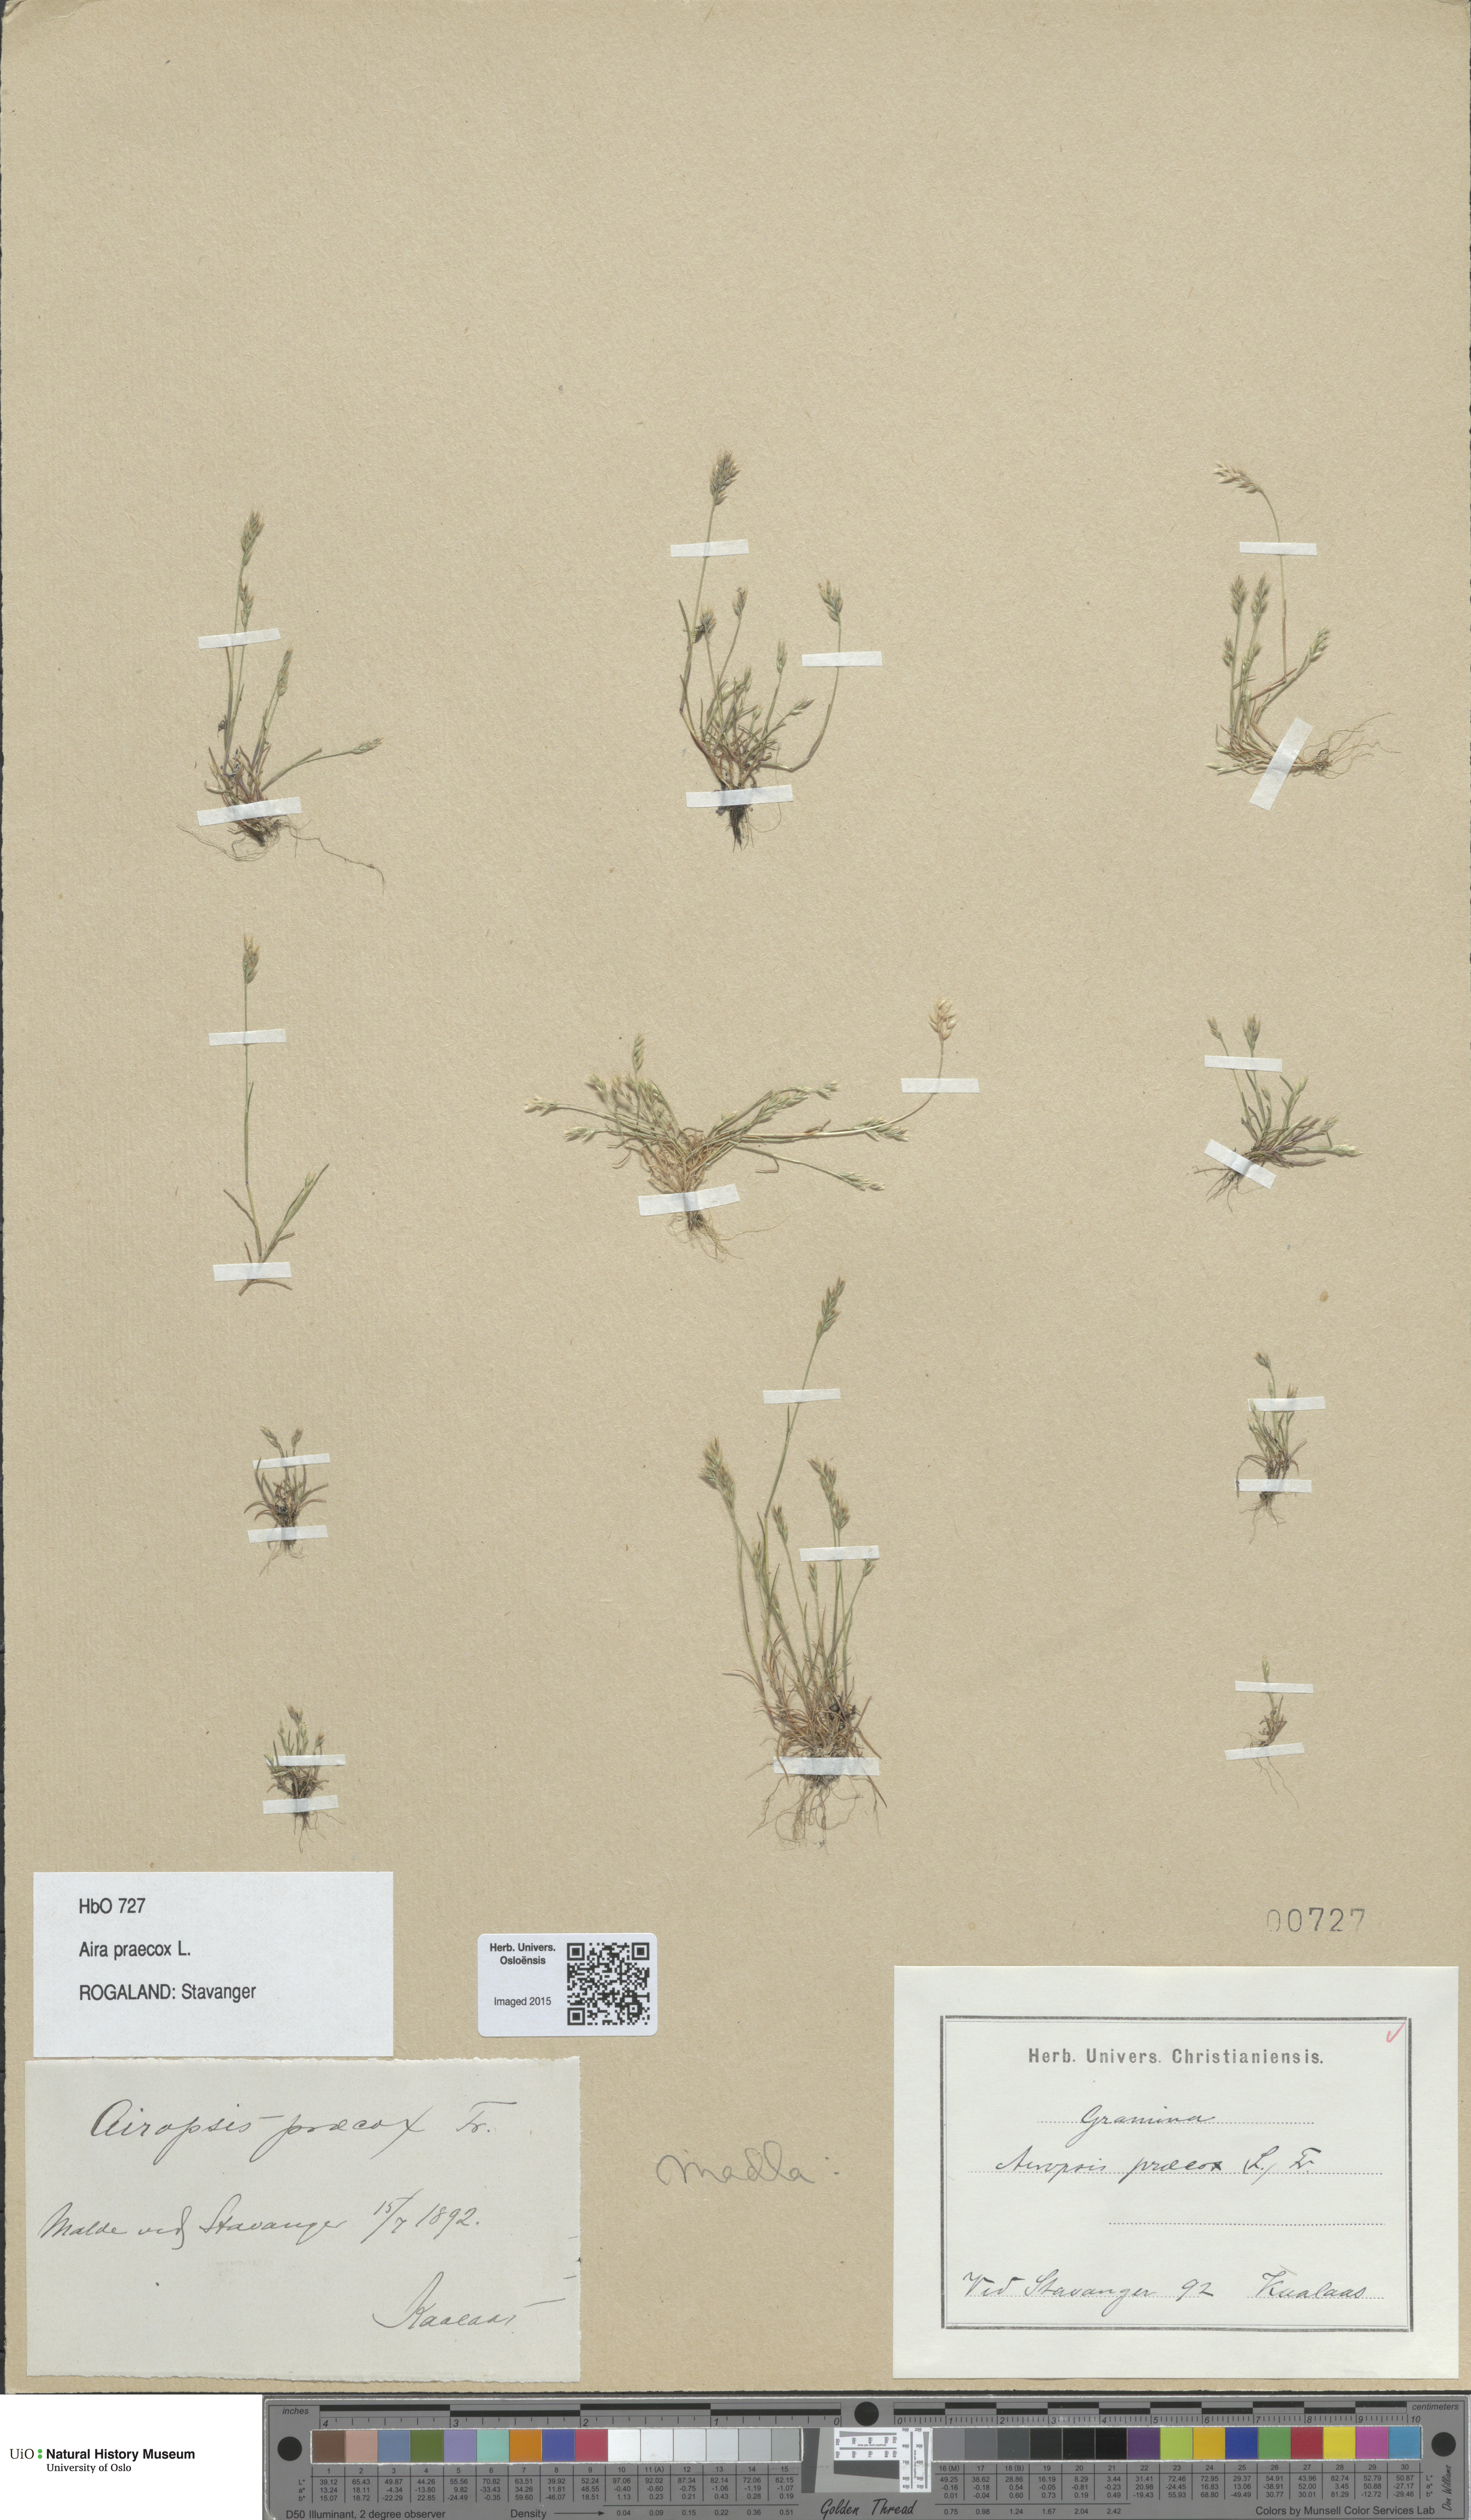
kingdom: Plantae
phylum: Tracheophyta
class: Liliopsida
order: Poales
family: Poaceae
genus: Aira
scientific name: Aira praecox
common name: Early hair-grass
